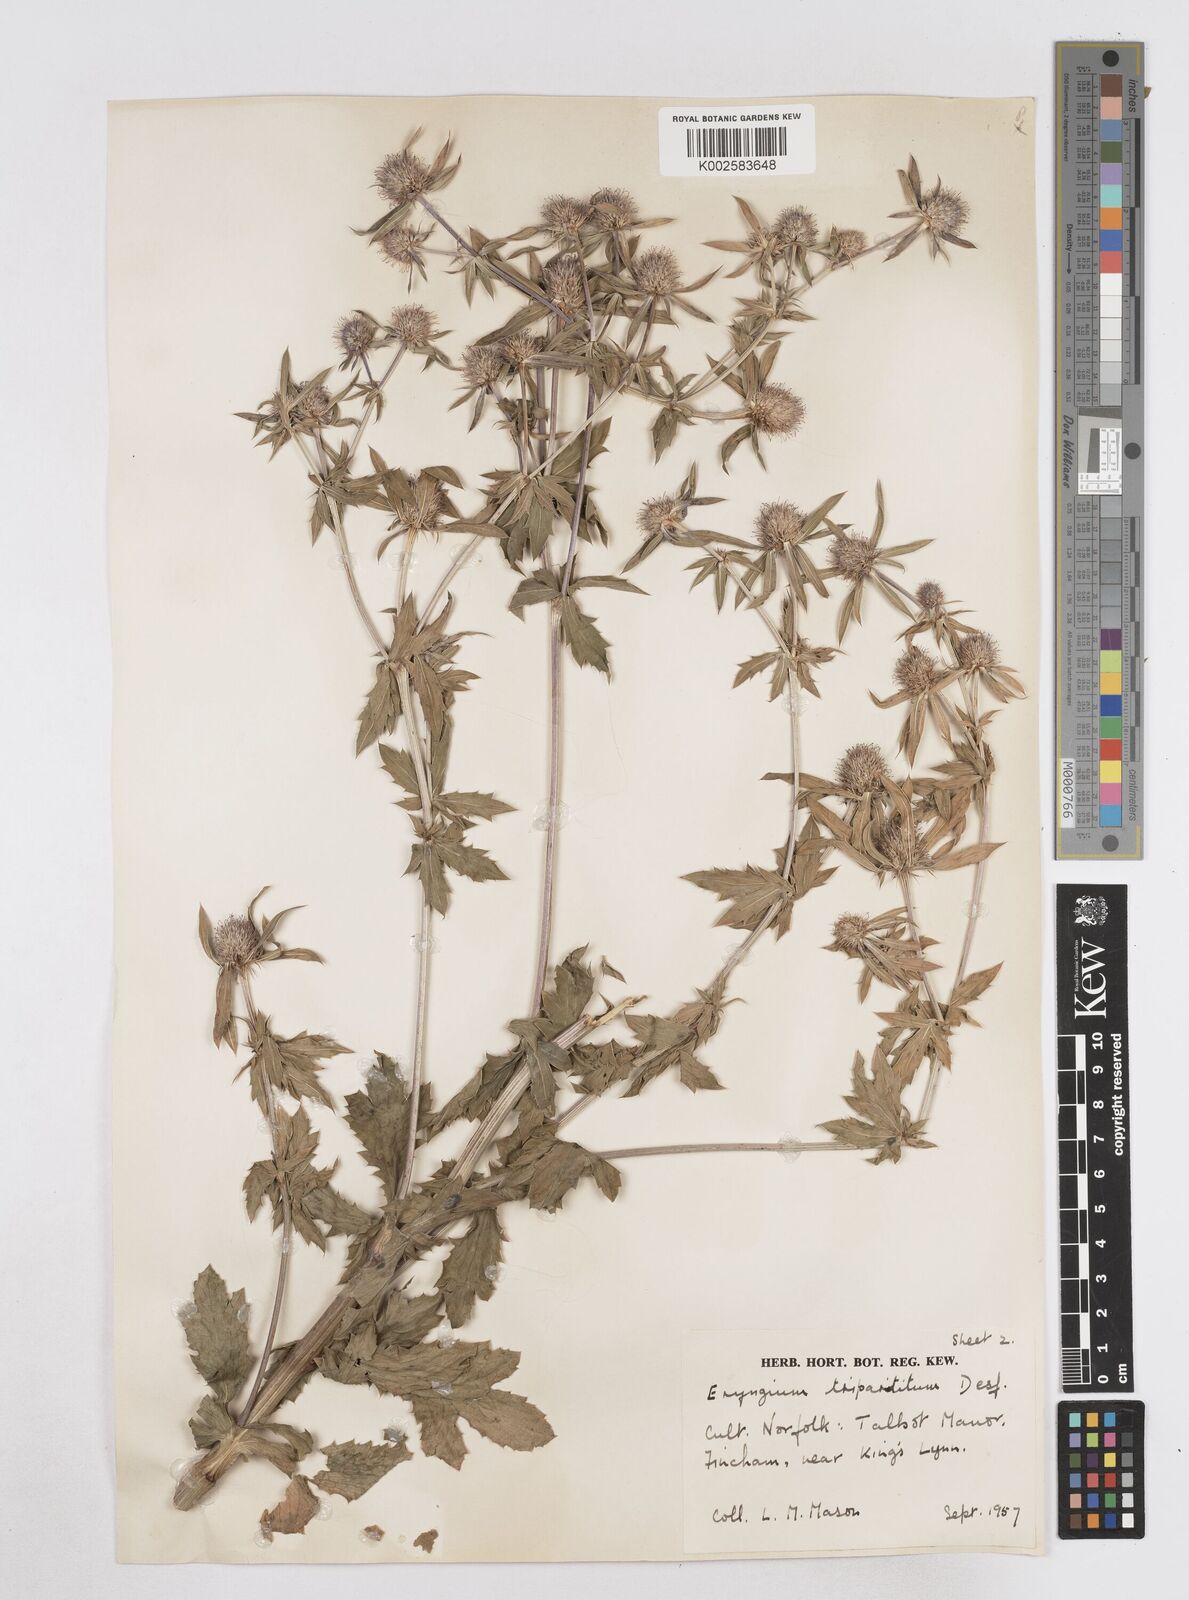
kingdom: Plantae
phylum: Tracheophyta
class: Magnoliopsida
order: Apiales
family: Apiaceae
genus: Eryngium
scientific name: Eryngium tripartitum
